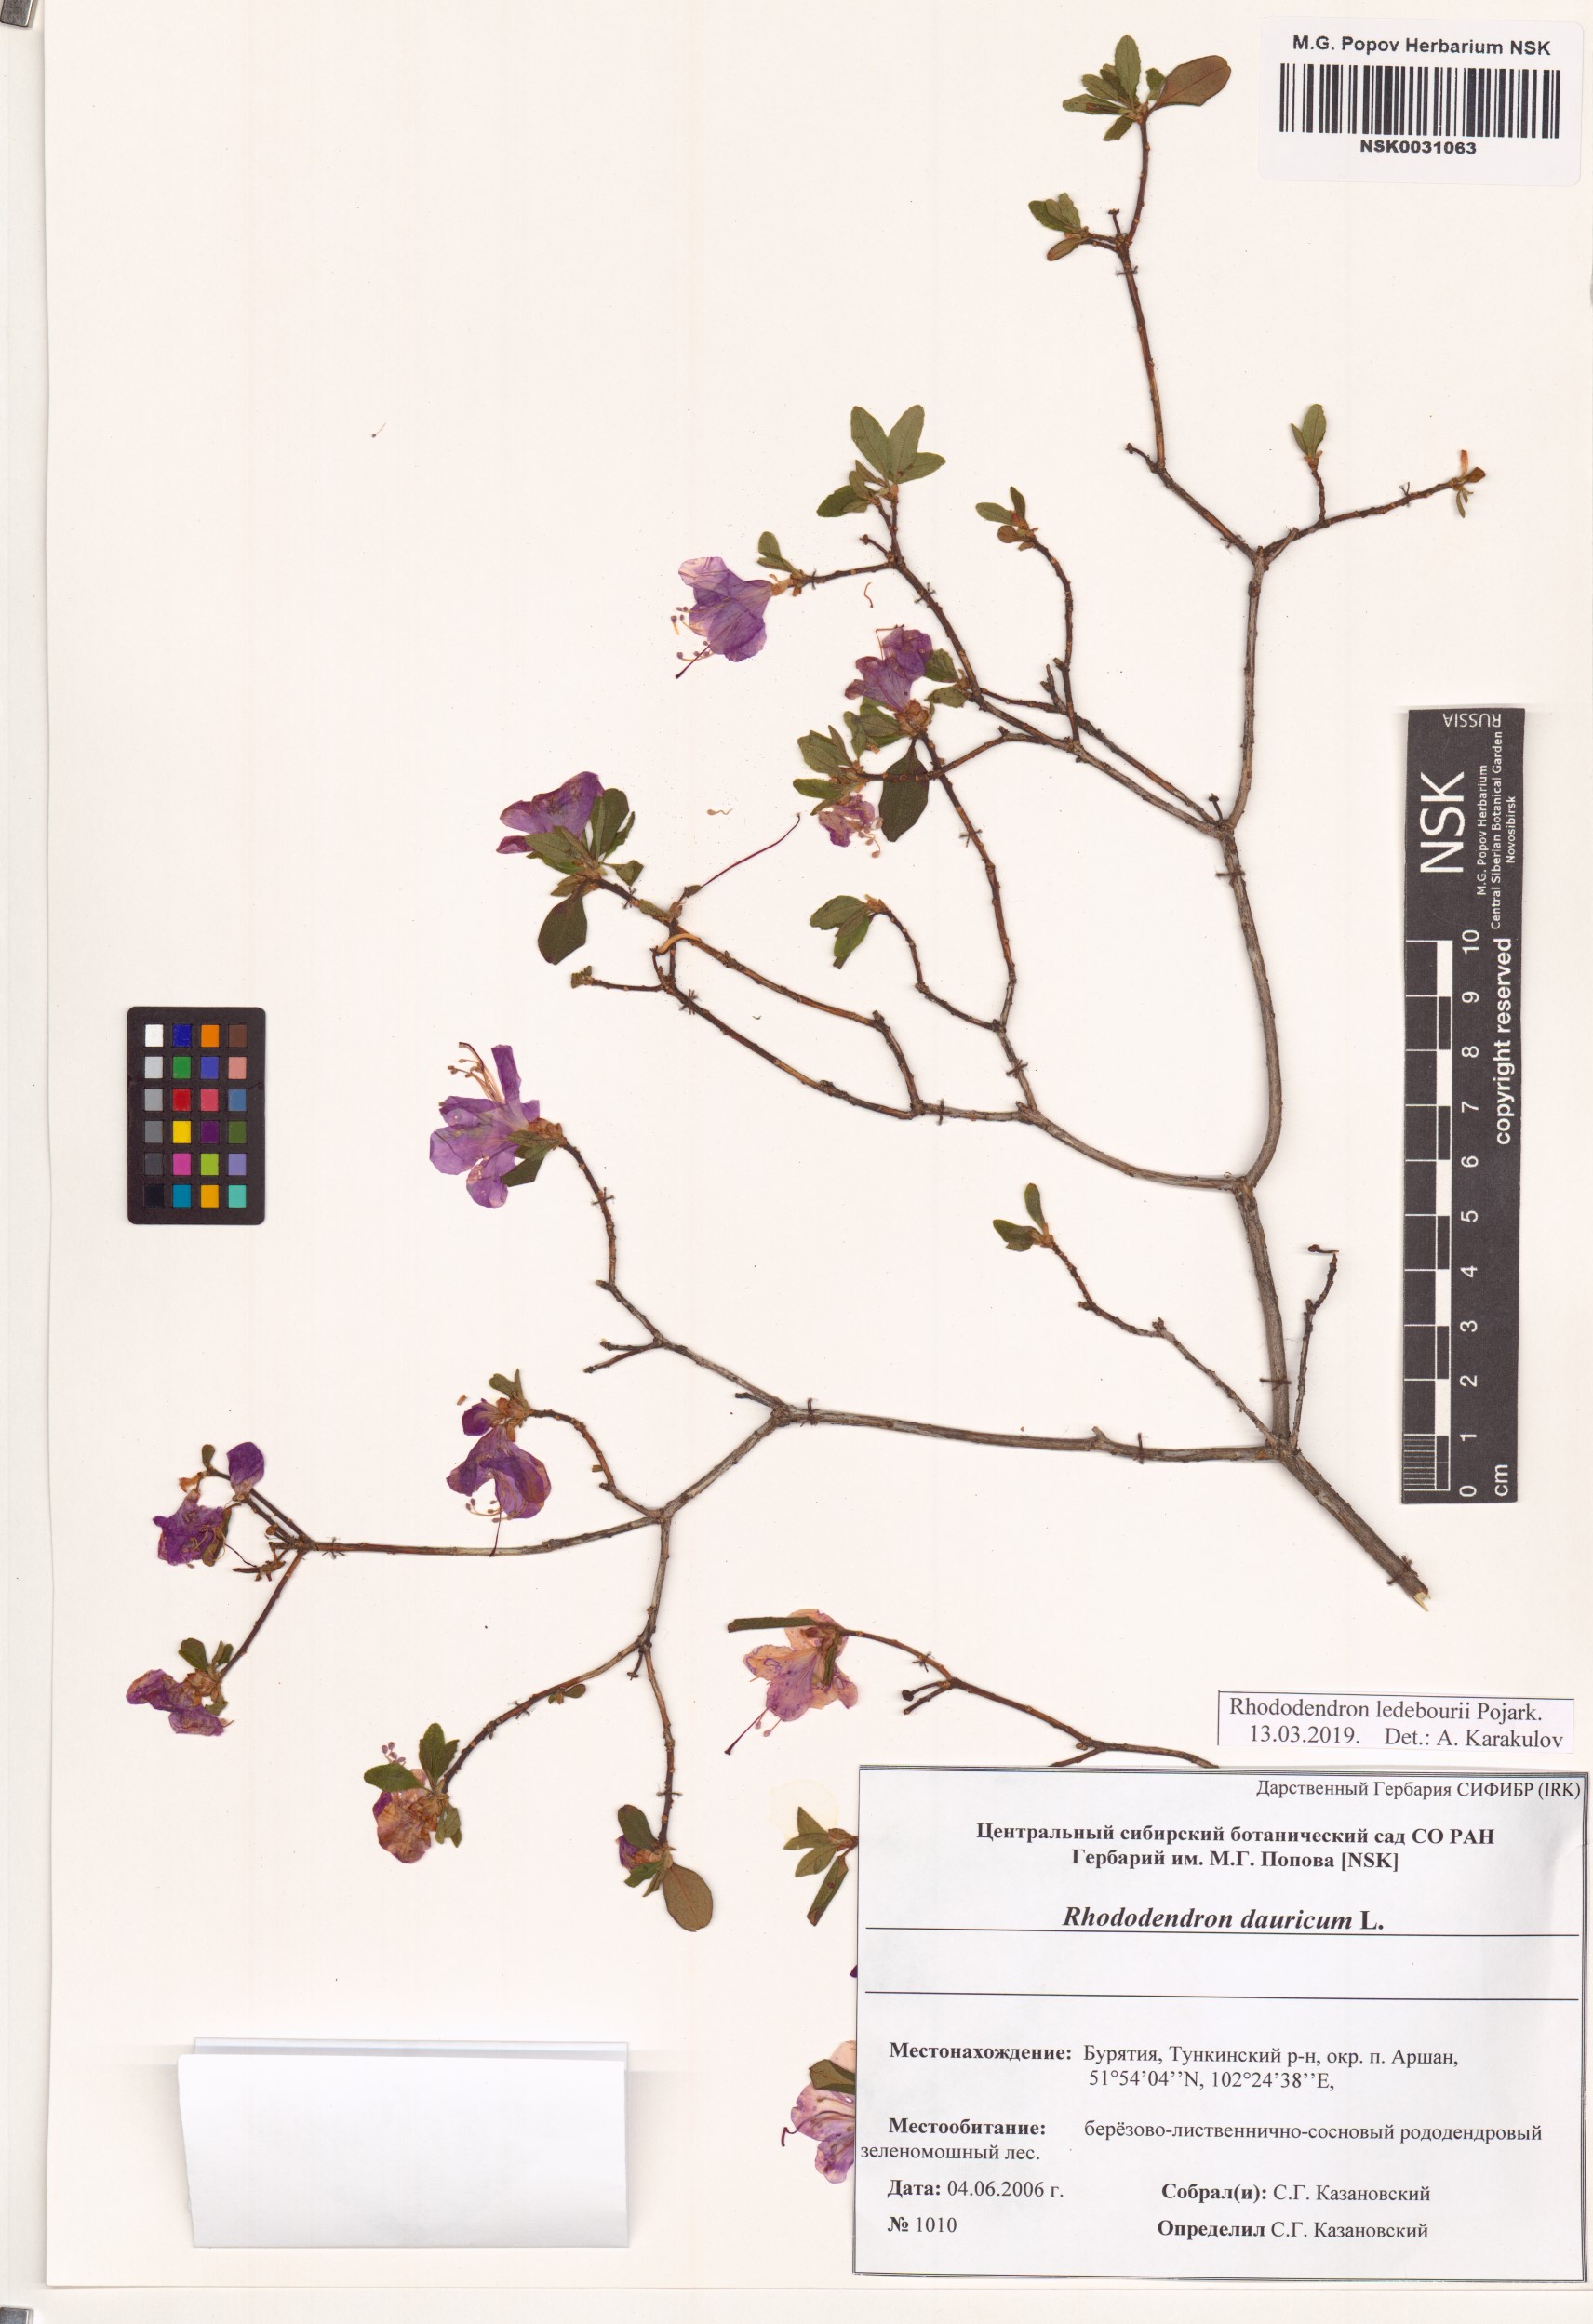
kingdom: Plantae
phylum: Tracheophyta
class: Magnoliopsida
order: Ericales
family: Ericaceae
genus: Rhododendron
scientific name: Rhododendron dauricum
